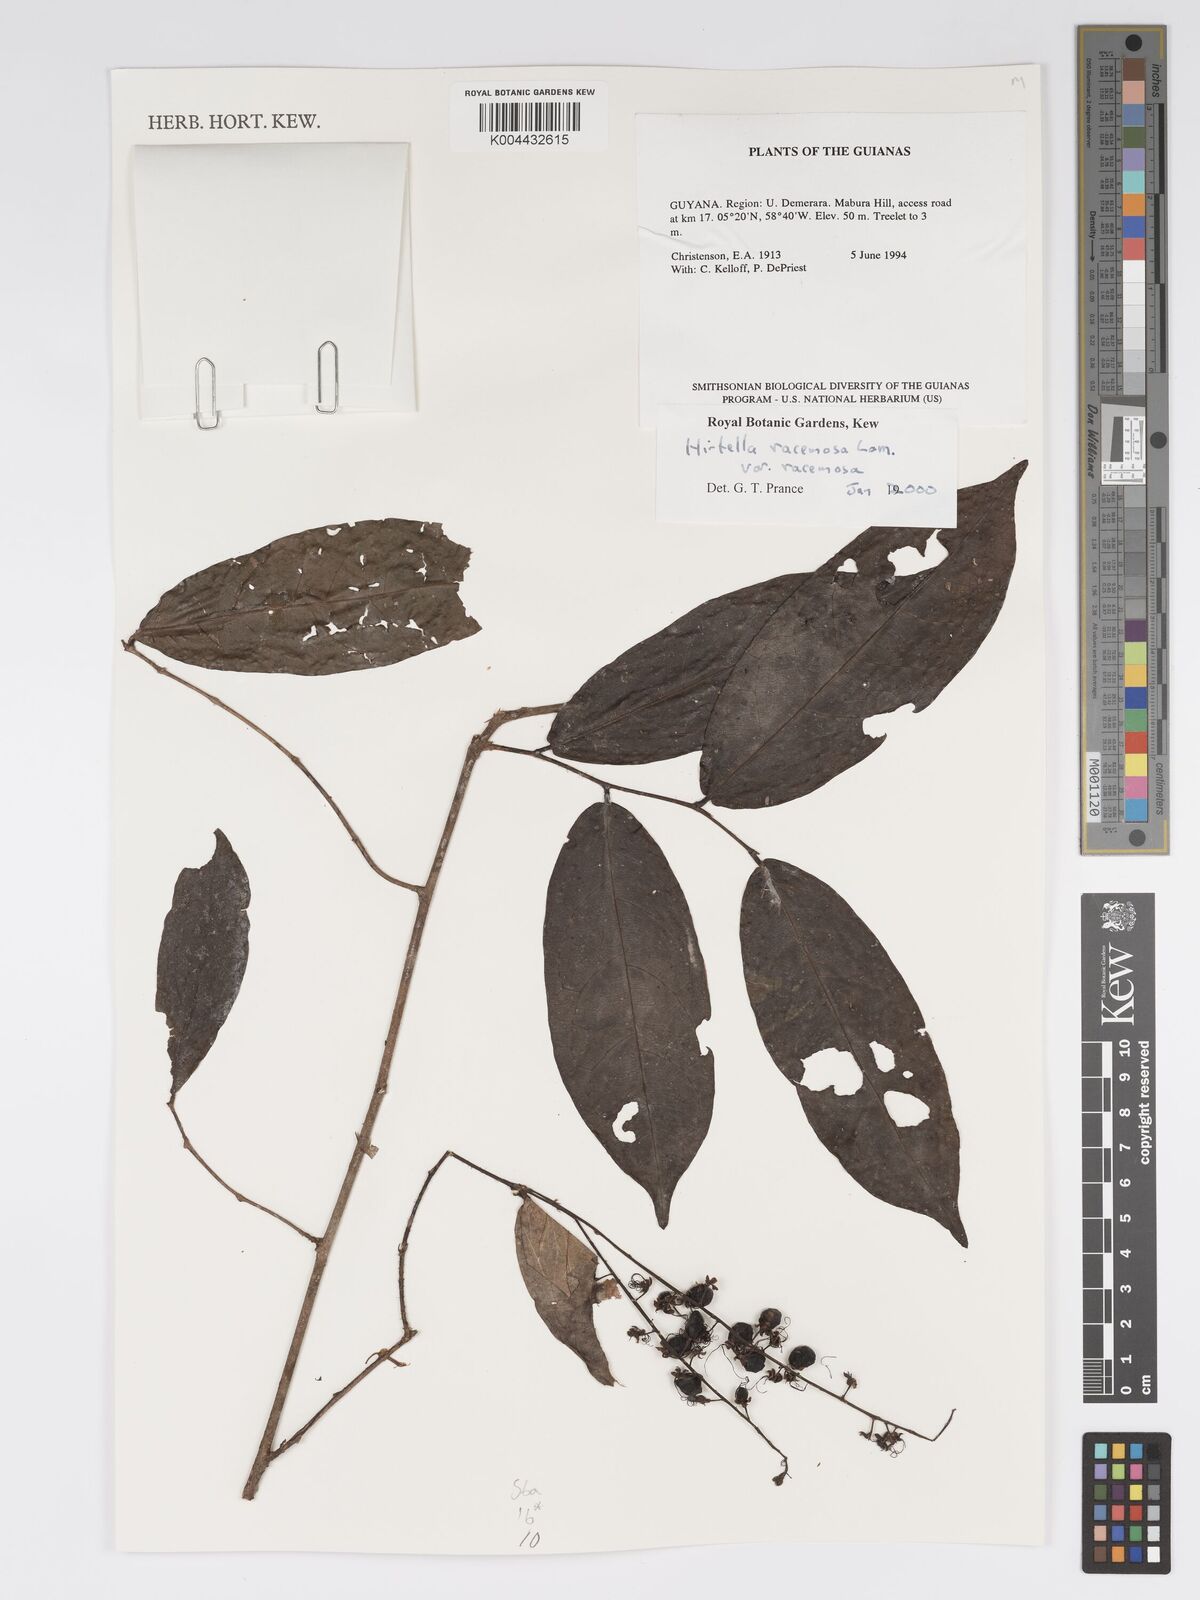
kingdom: Plantae
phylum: Tracheophyta
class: Magnoliopsida
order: Malpighiales
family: Chrysobalanaceae
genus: Hirtella
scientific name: Hirtella racemosa
